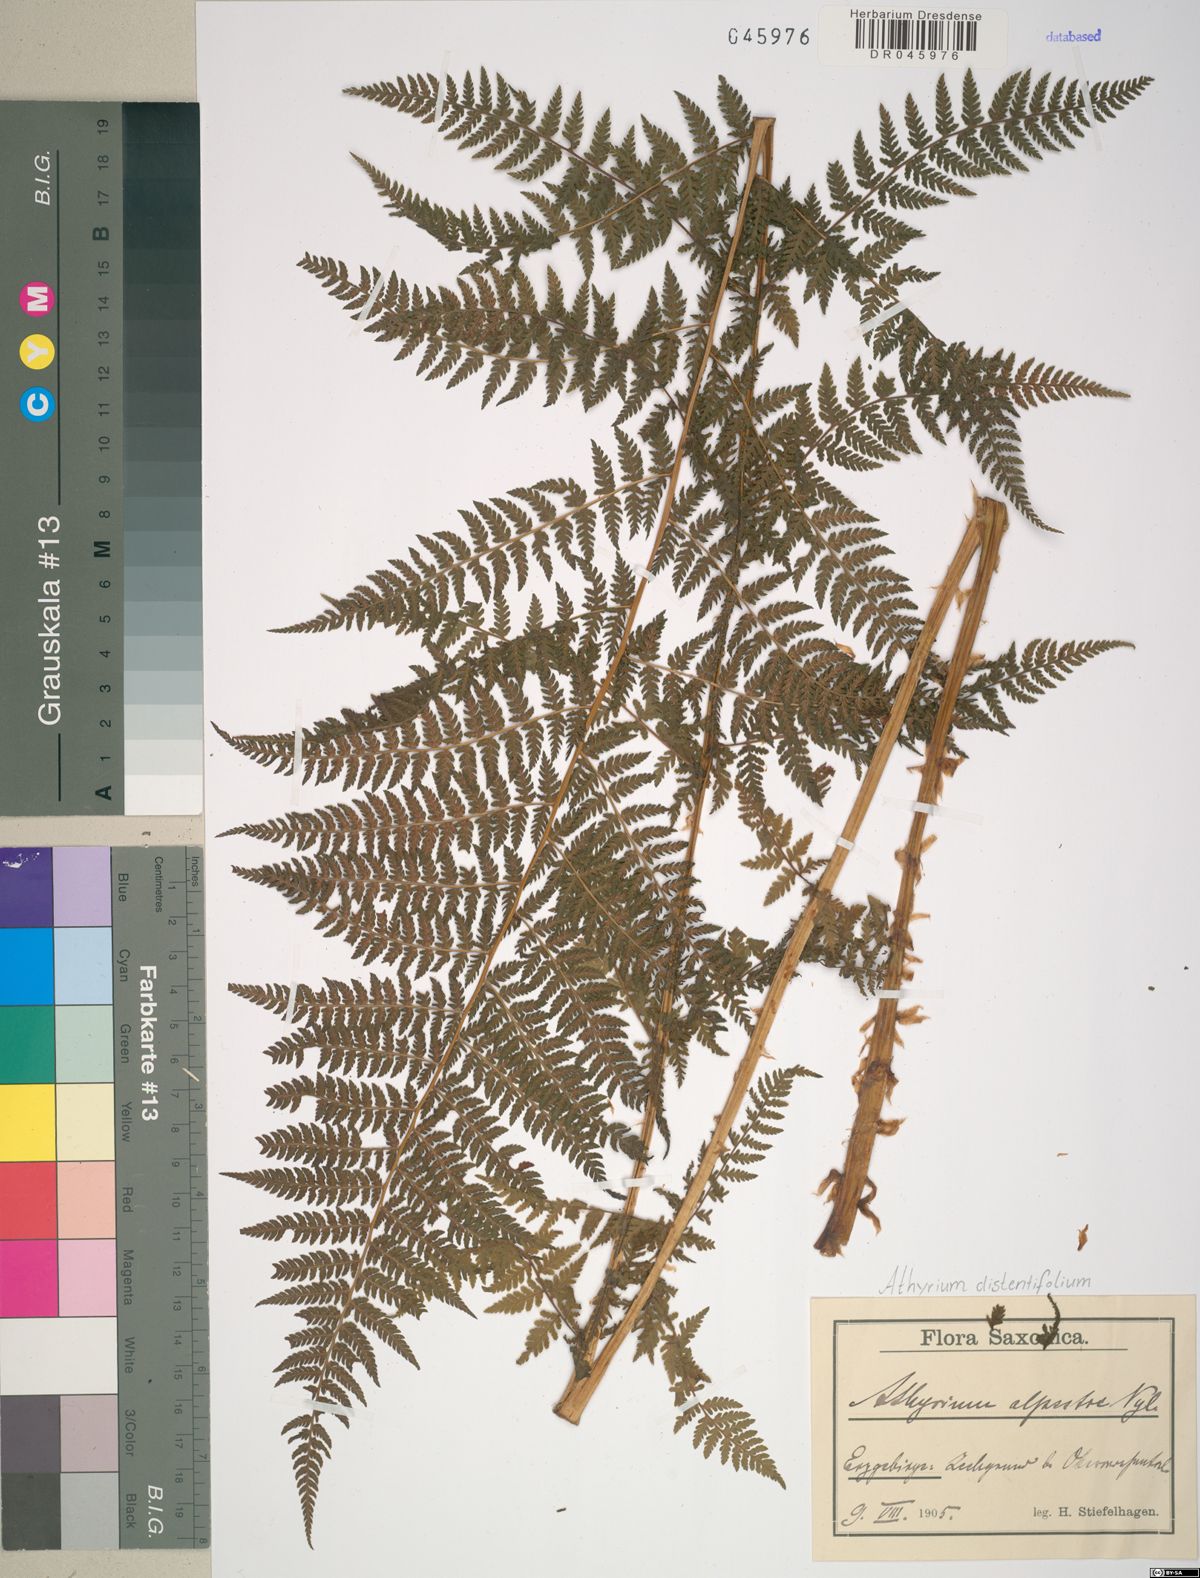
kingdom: Plantae
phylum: Tracheophyta
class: Polypodiopsida
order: Polypodiales
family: Athyriaceae
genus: Pseudathyrium
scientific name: Pseudathyrium alpestre
